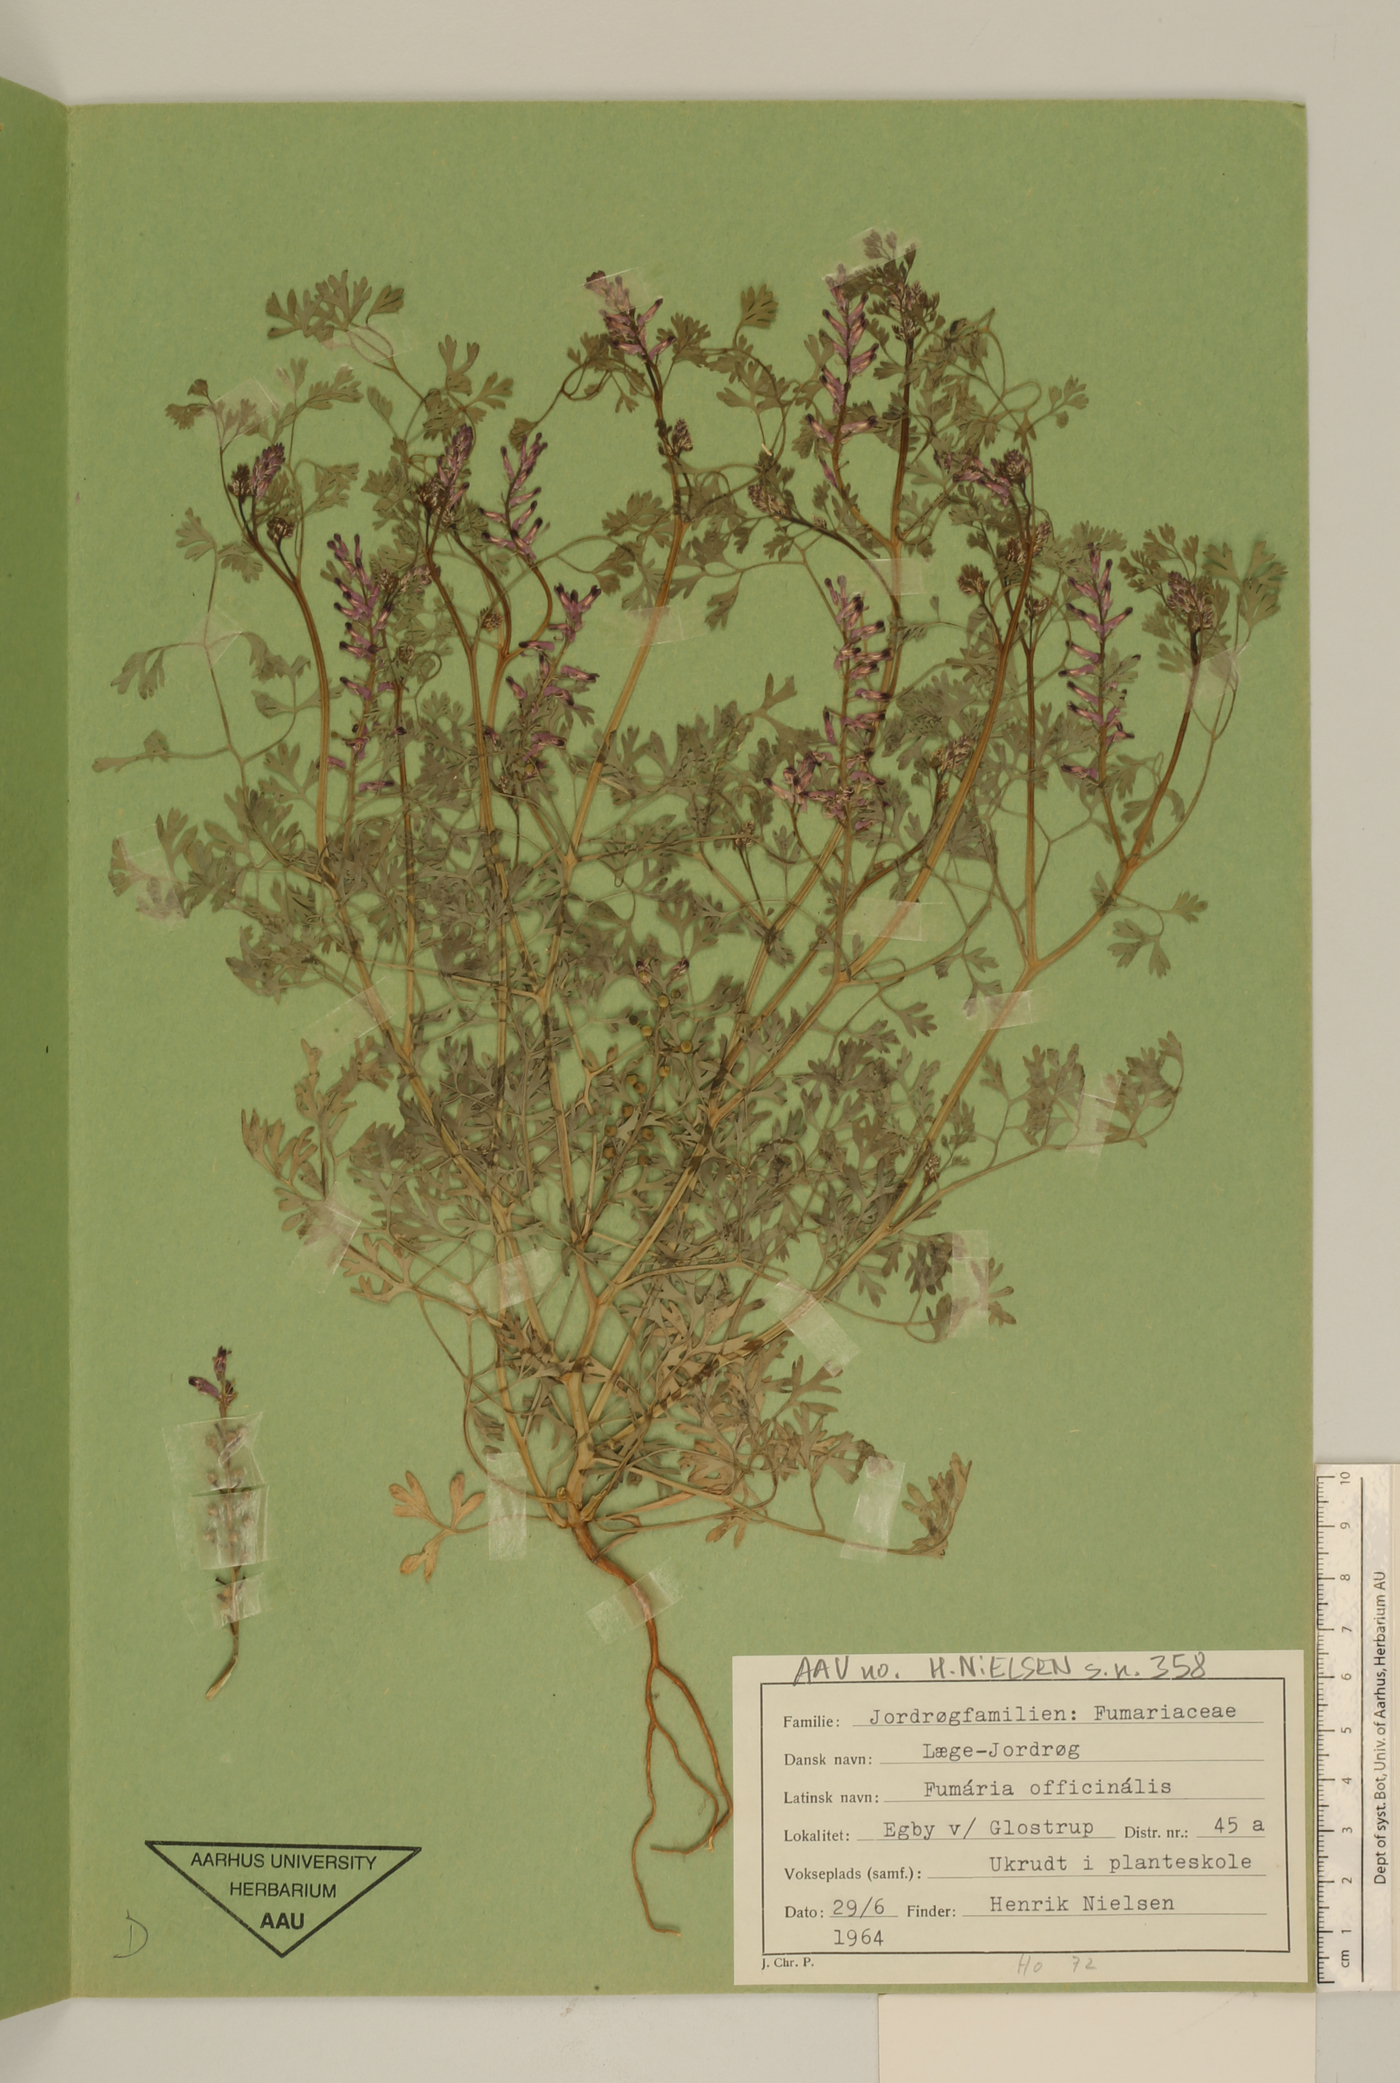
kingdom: Plantae
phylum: Tracheophyta
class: Magnoliopsida
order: Ranunculales
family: Papaveraceae
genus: Fumaria
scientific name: Fumaria officinalis
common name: Common fumitory
